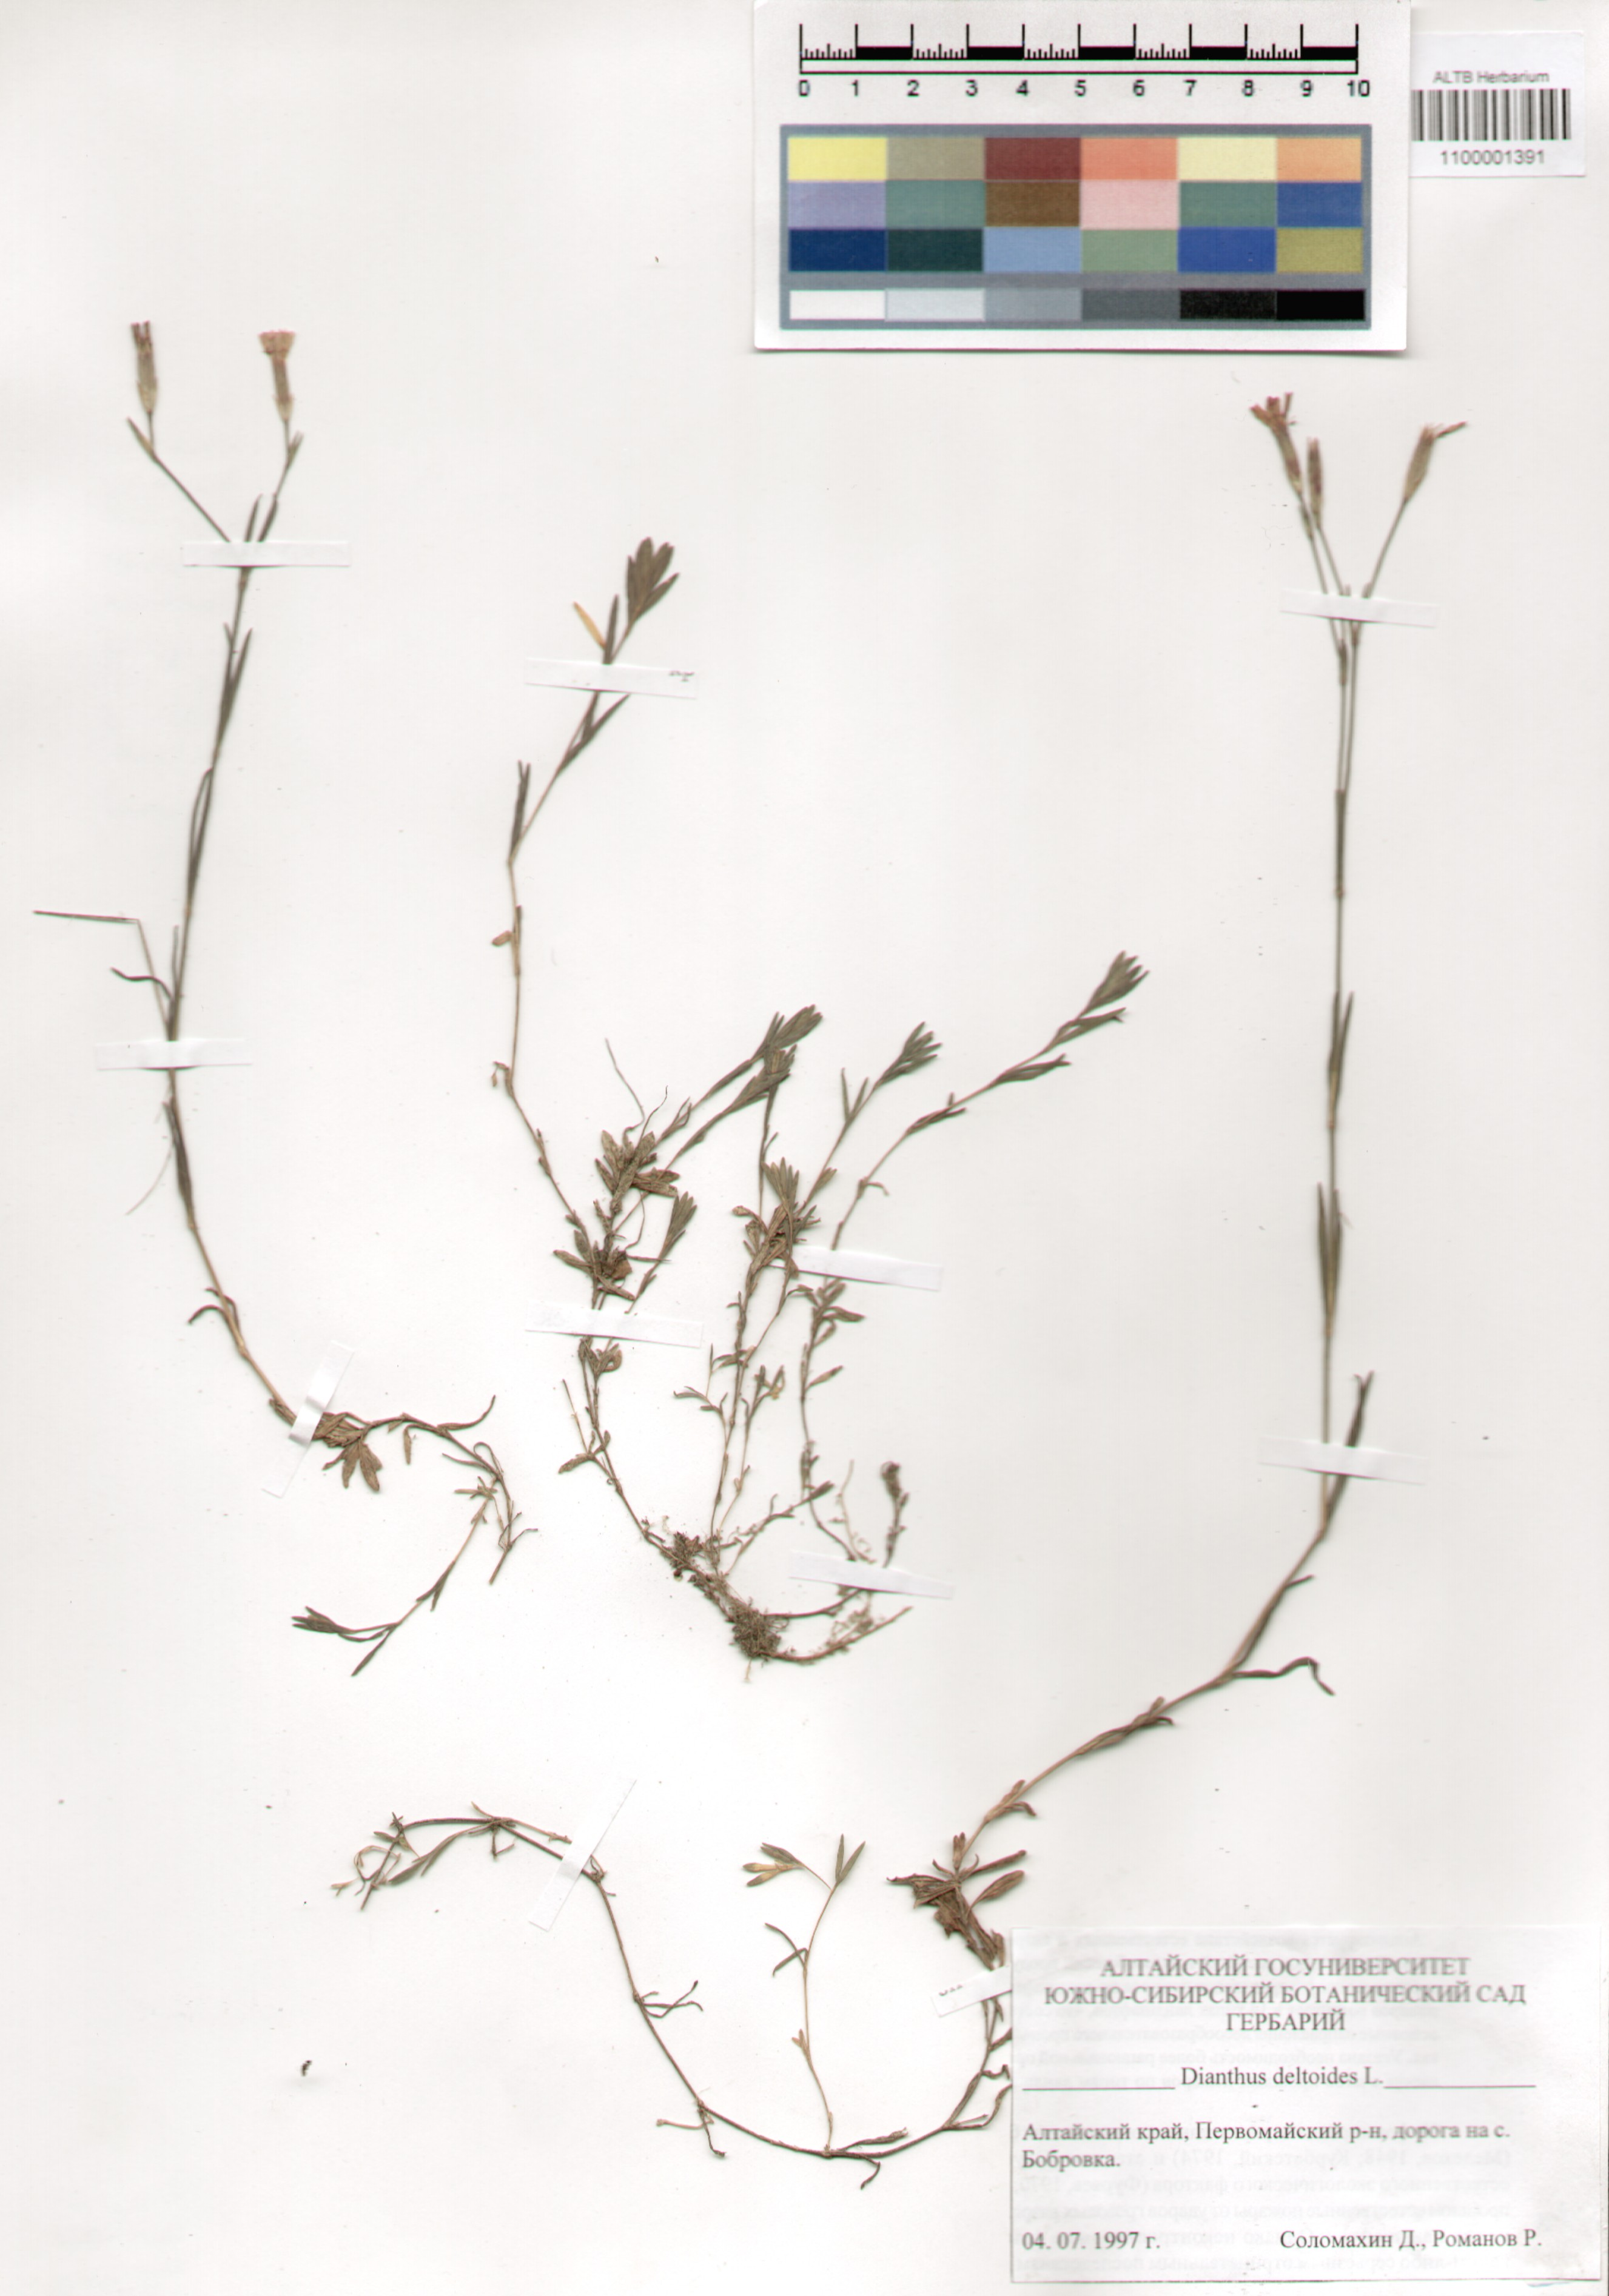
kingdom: Plantae
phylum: Tracheophyta
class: Magnoliopsida
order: Caryophyllales
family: Caryophyllaceae
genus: Dianthus
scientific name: Dianthus deltoides
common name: Maiden pink
